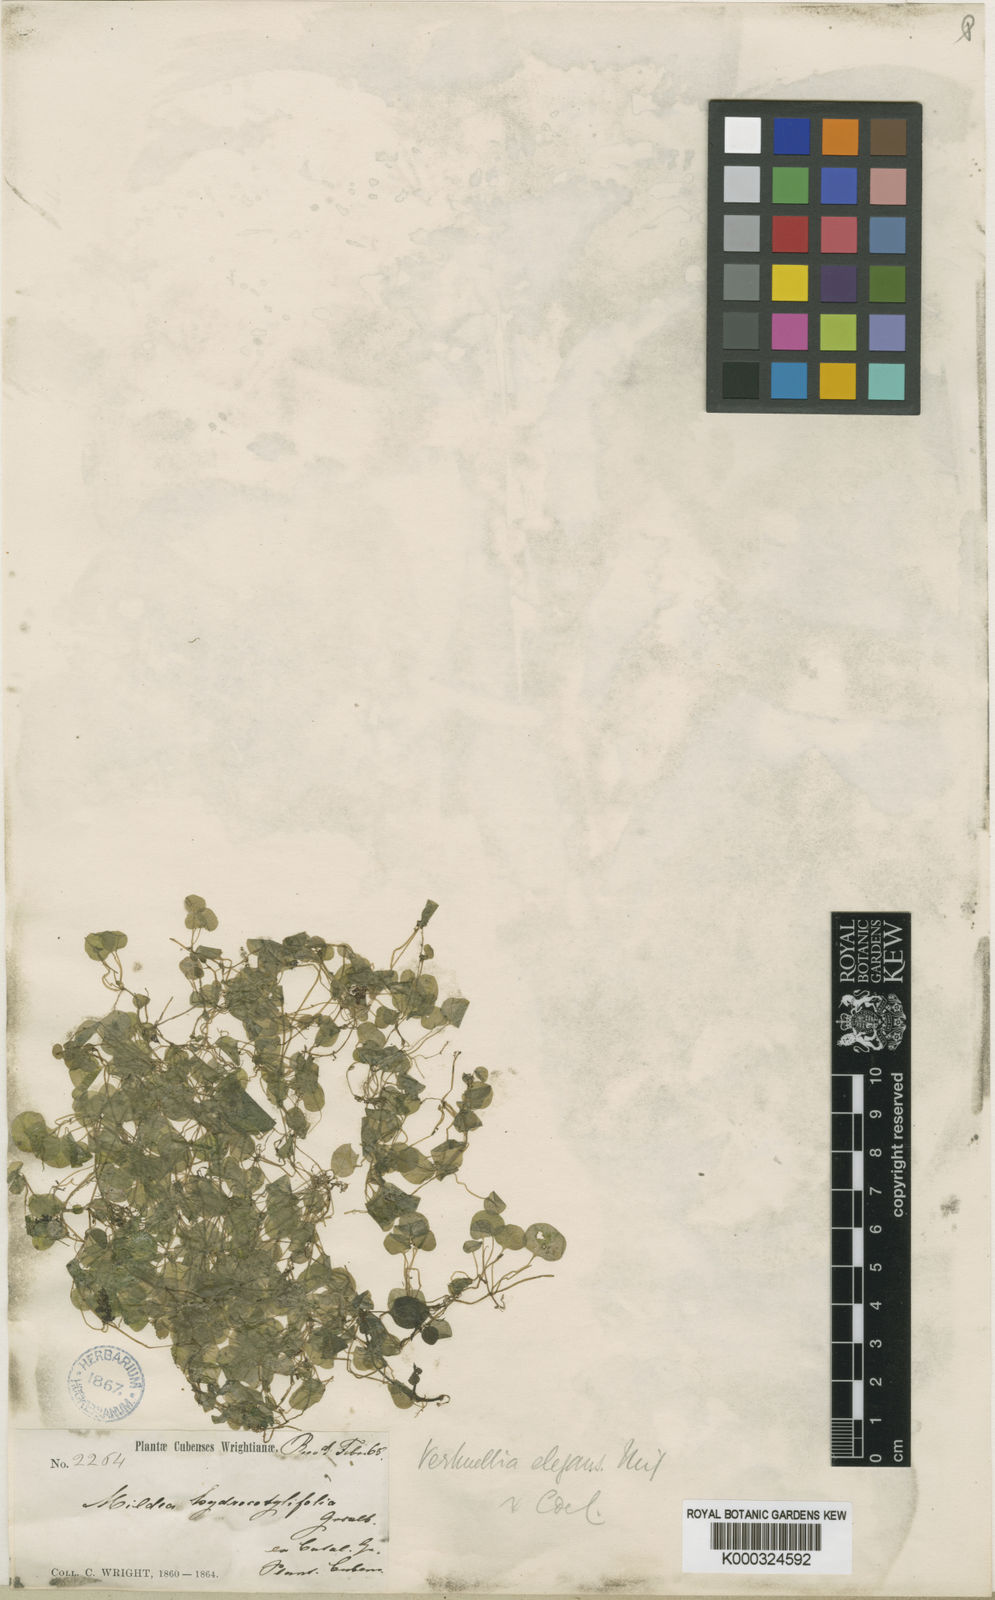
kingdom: Plantae
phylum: Tracheophyta
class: Magnoliopsida
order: Piperales
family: Piperaceae
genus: Verhuellia
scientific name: Verhuellia lunaria
